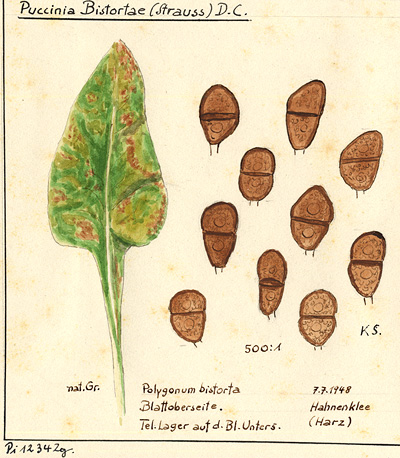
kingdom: Plantae
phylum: Tracheophyta
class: Magnoliopsida
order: Caryophyllales
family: Polygonaceae
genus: Polygonum
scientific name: Polygonum bistorta
